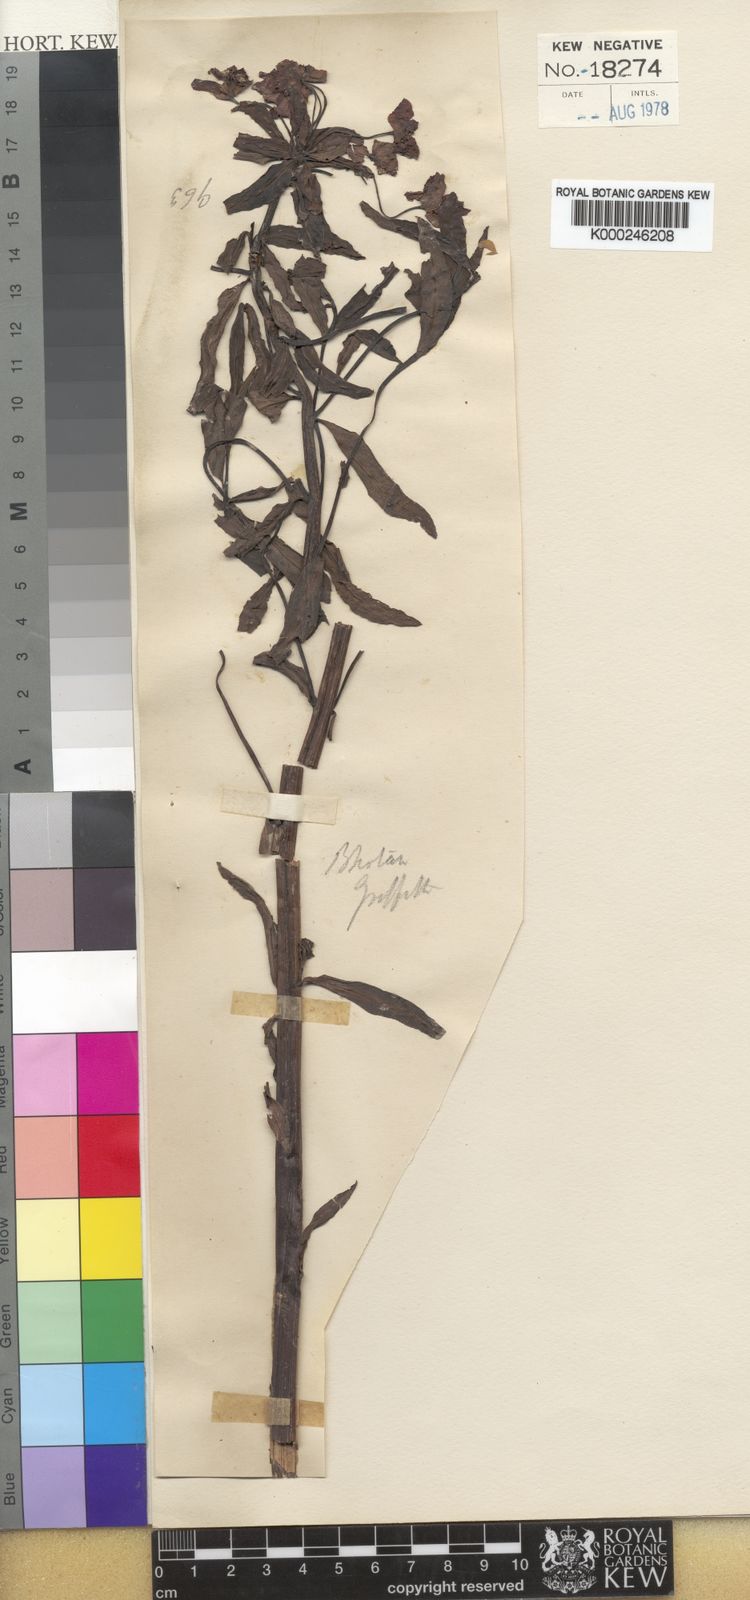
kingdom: Plantae
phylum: Tracheophyta
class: Magnoliopsida
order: Malpighiales
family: Euphorbiaceae
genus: Euphorbia
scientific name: Euphorbia griffithii
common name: Griffith's spurge
